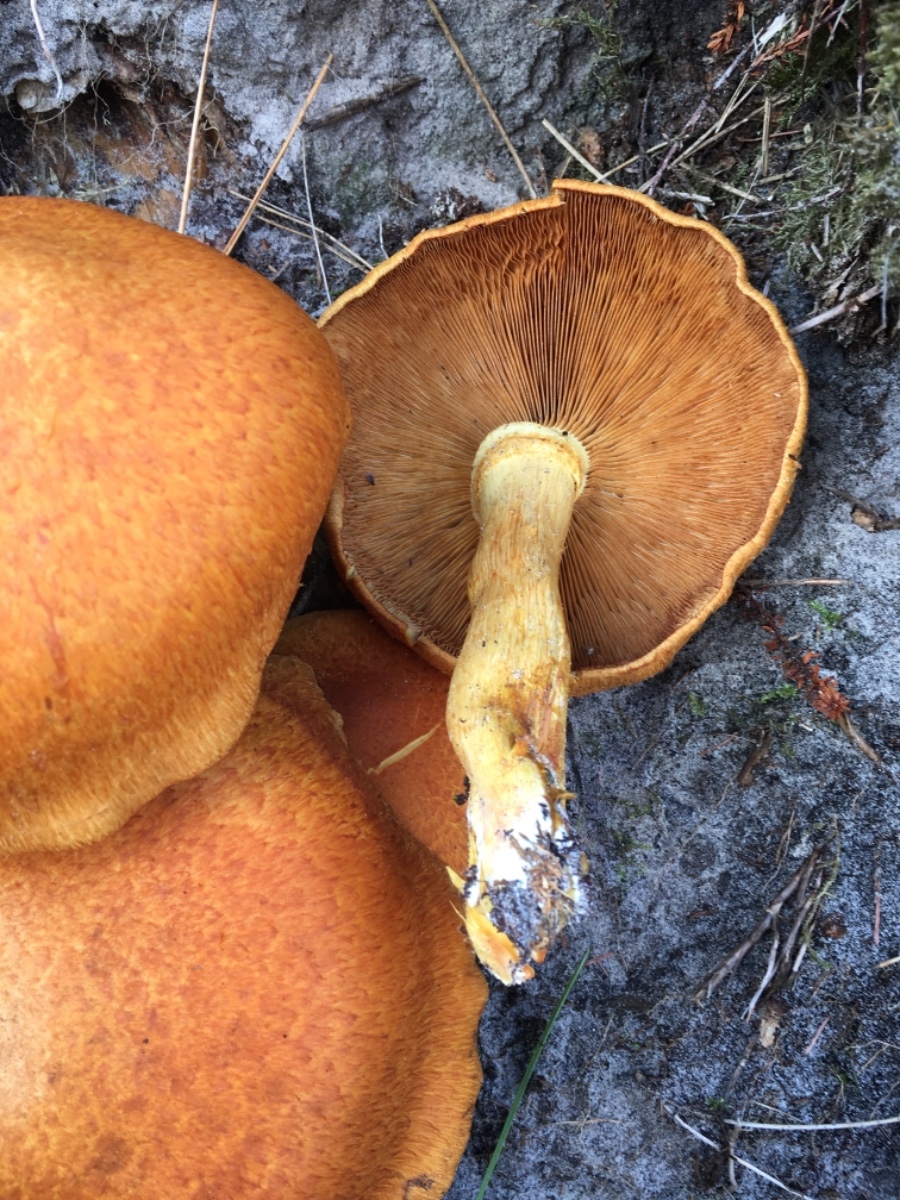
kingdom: Fungi
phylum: Basidiomycota
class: Agaricomycetes
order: Agaricales
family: Hymenogastraceae
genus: Gymnopilus
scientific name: Gymnopilus spectabilis
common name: fibret flammehat
